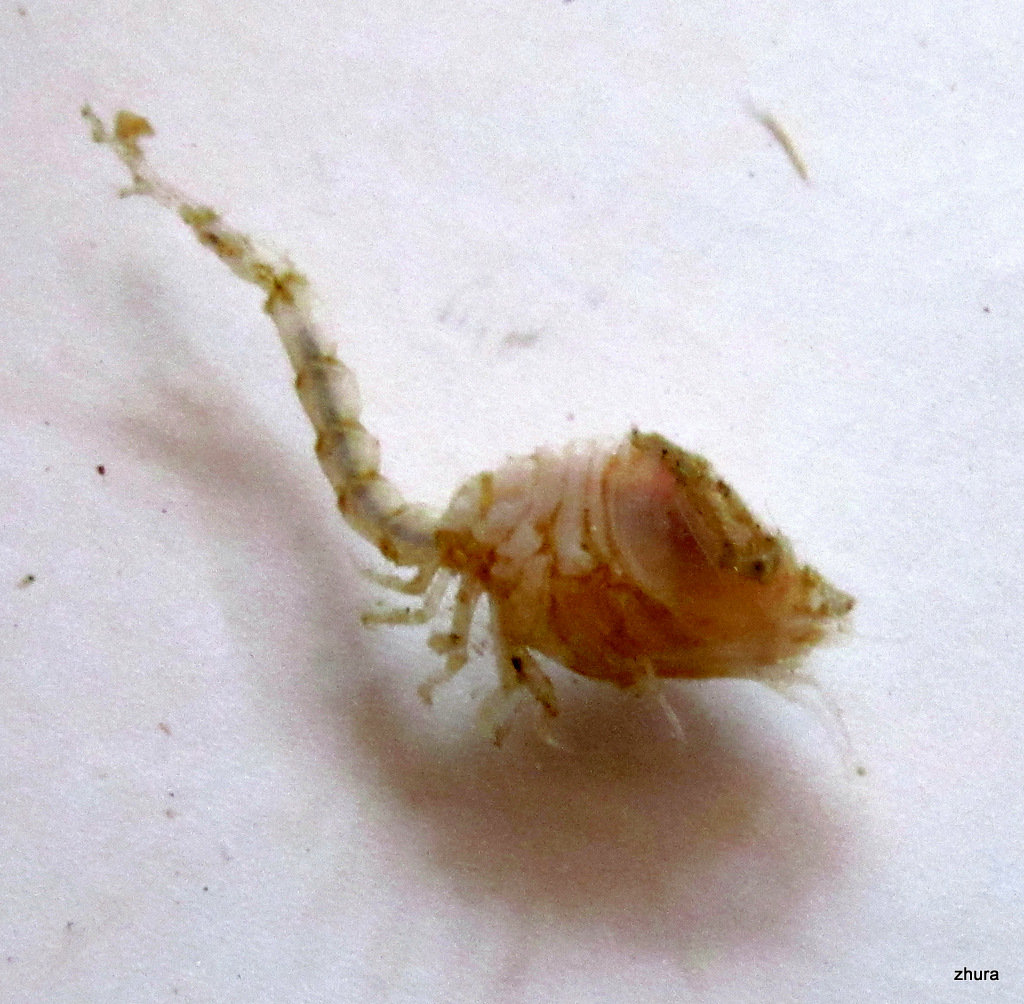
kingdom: Animalia
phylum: Arthropoda
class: Malacostraca
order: Cumacea
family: Diastylidae
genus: Diastylis
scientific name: Diastylis scorpioides
